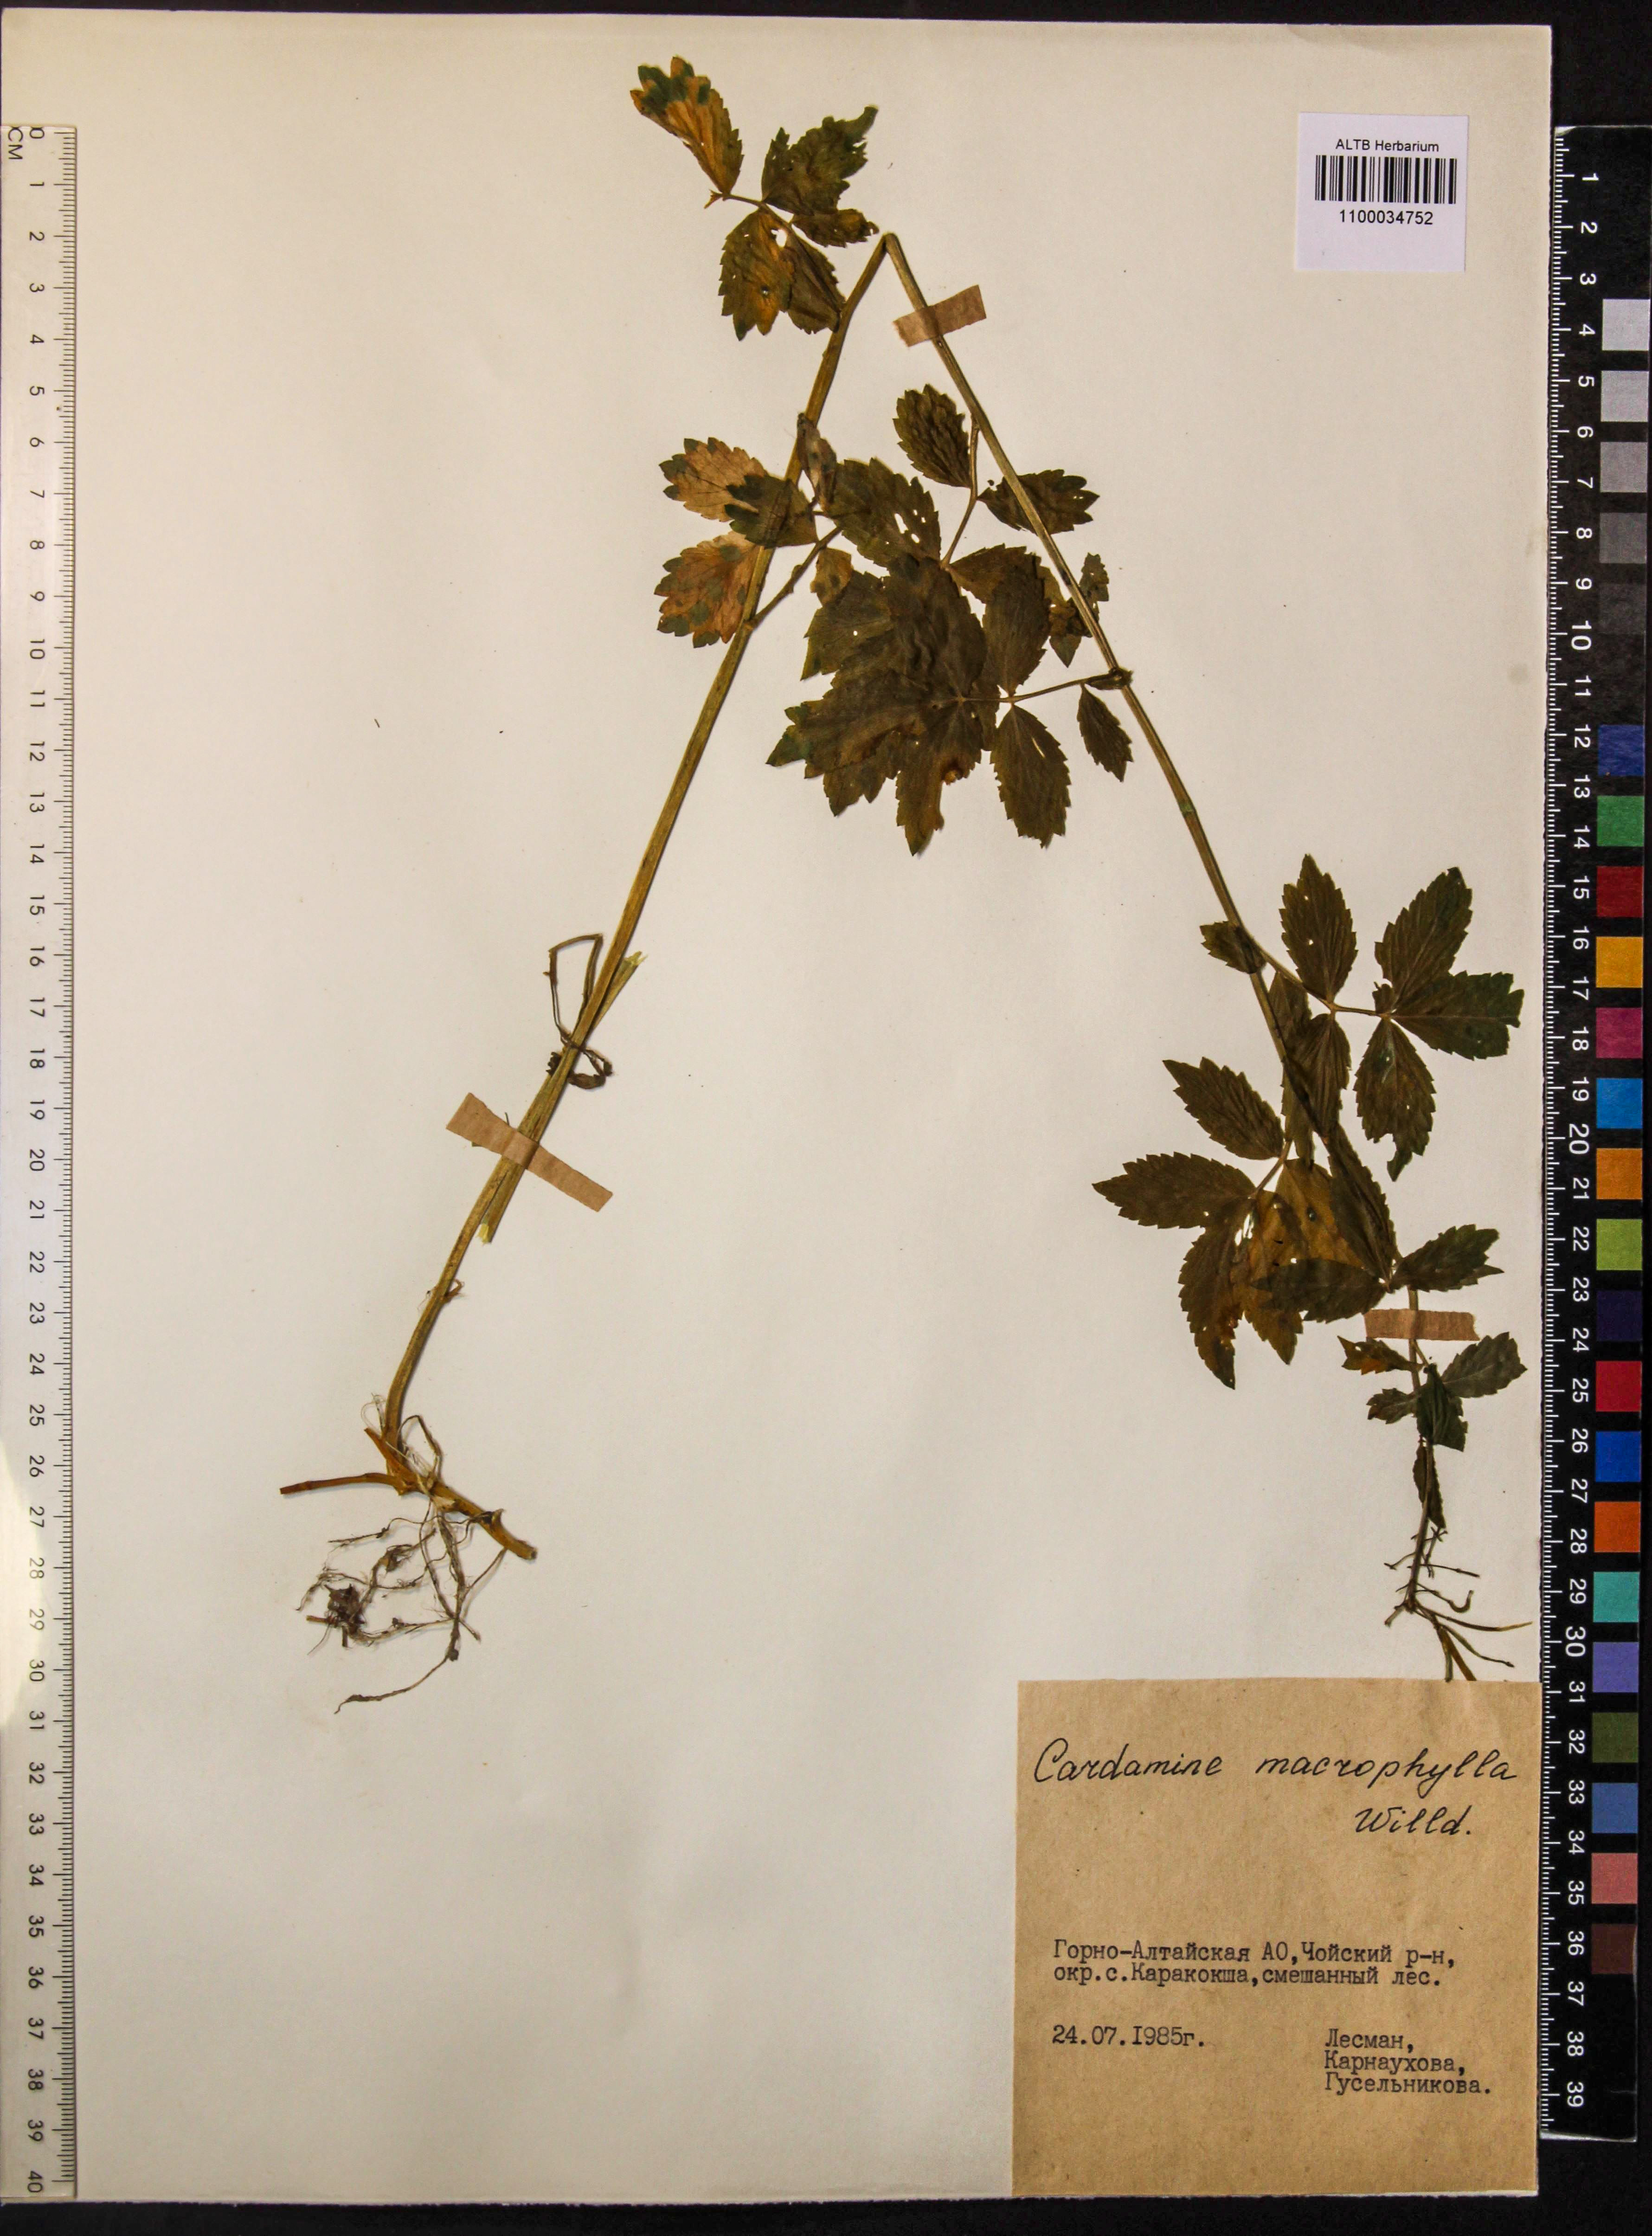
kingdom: Plantae
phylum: Tracheophyta
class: Magnoliopsida
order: Brassicales
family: Brassicaceae
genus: Cardamine
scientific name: Cardamine macrophylla
